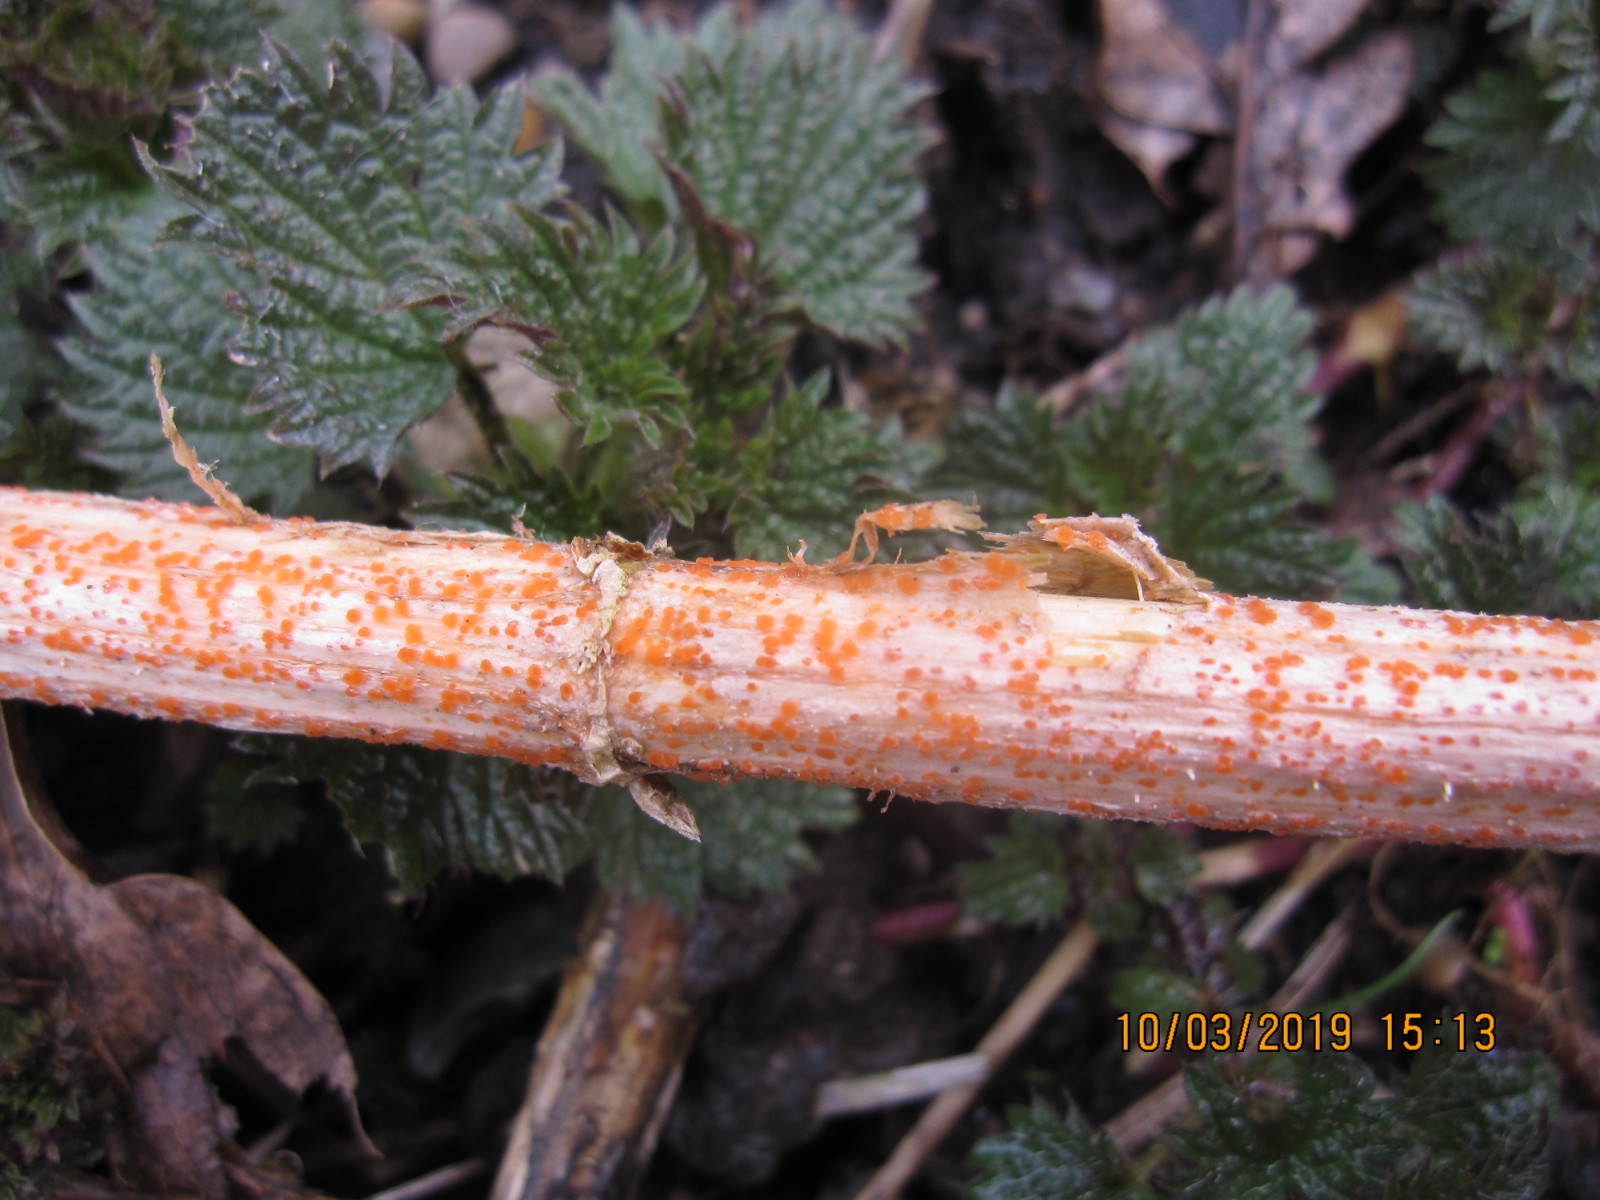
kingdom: Fungi
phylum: Ascomycota
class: Leotiomycetes
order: Helotiales
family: Calloriaceae
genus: Calloria
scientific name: Calloria urticae
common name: nælde-orangeskive
